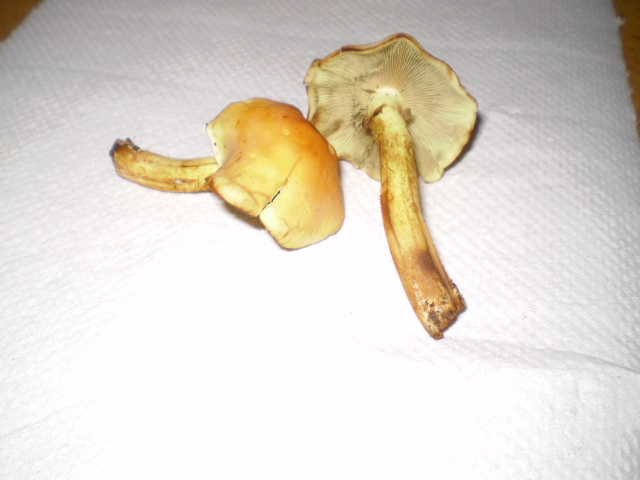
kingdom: Fungi
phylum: Basidiomycota
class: Agaricomycetes
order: Agaricales
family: Strophariaceae
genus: Hypholoma
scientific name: Hypholoma fasciculare
